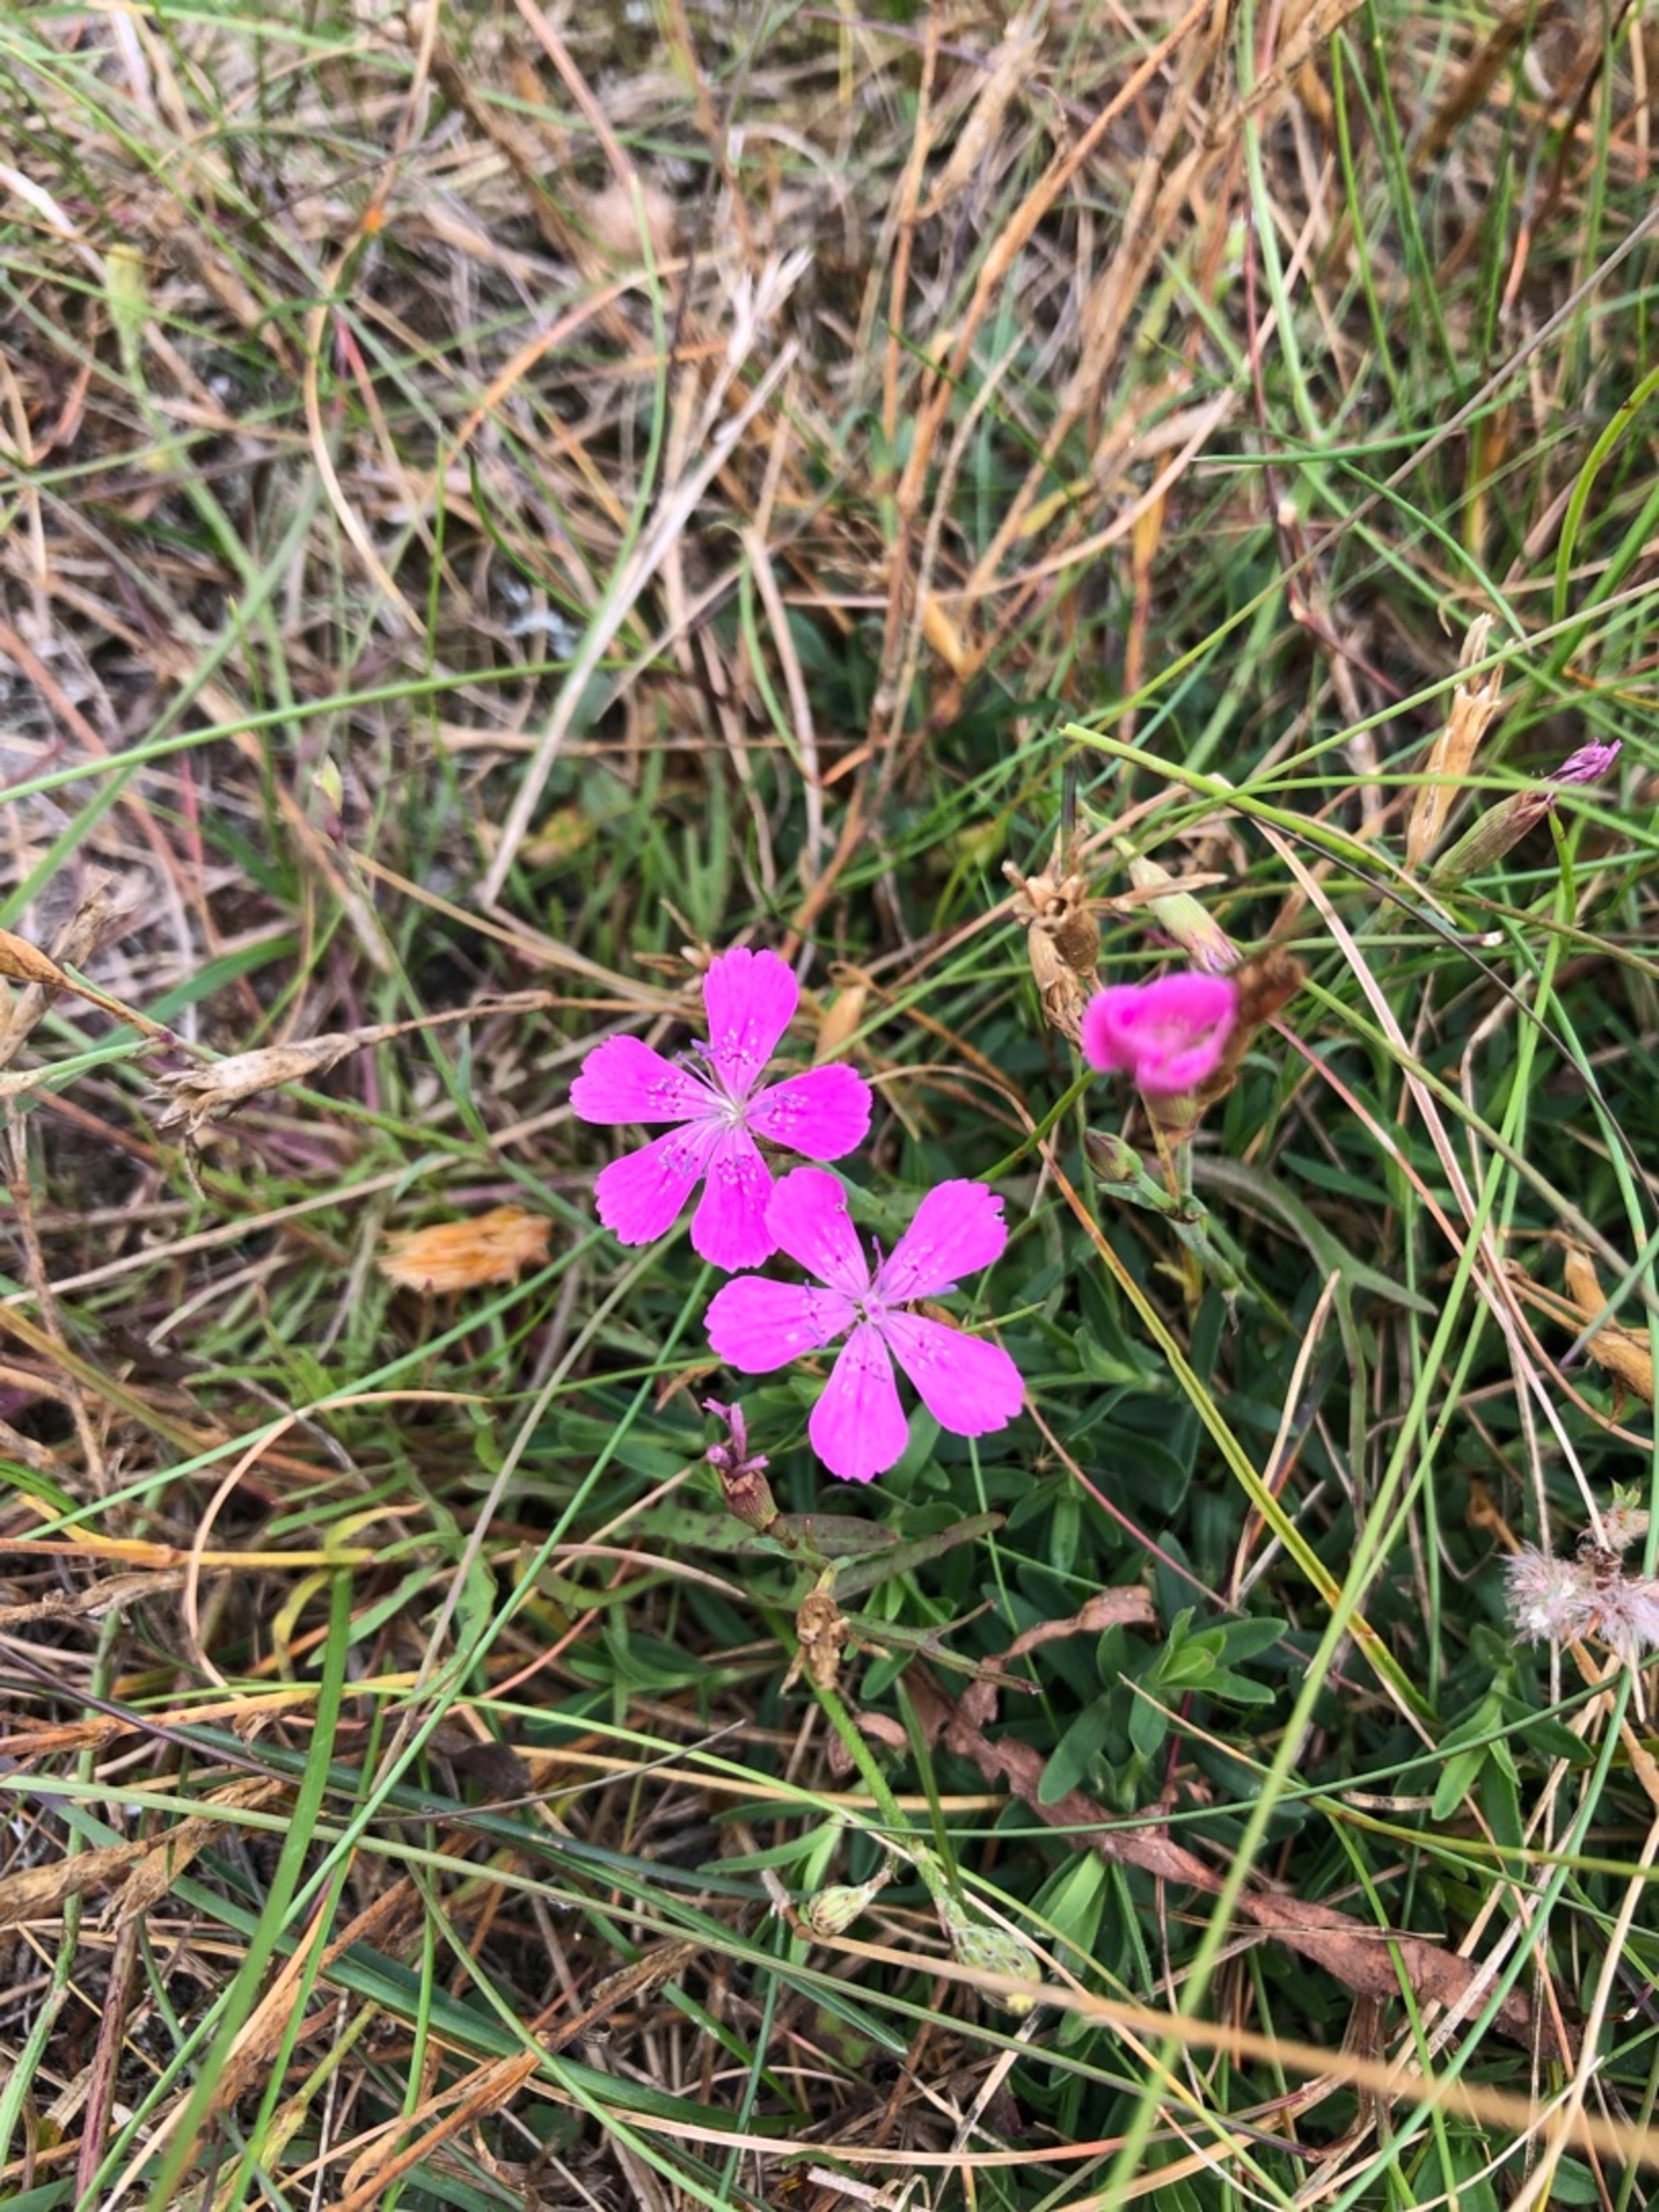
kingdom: Plantae
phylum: Tracheophyta
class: Magnoliopsida
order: Caryophyllales
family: Caryophyllaceae
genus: Dianthus
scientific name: Dianthus deltoides
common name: Bakke-nellike
